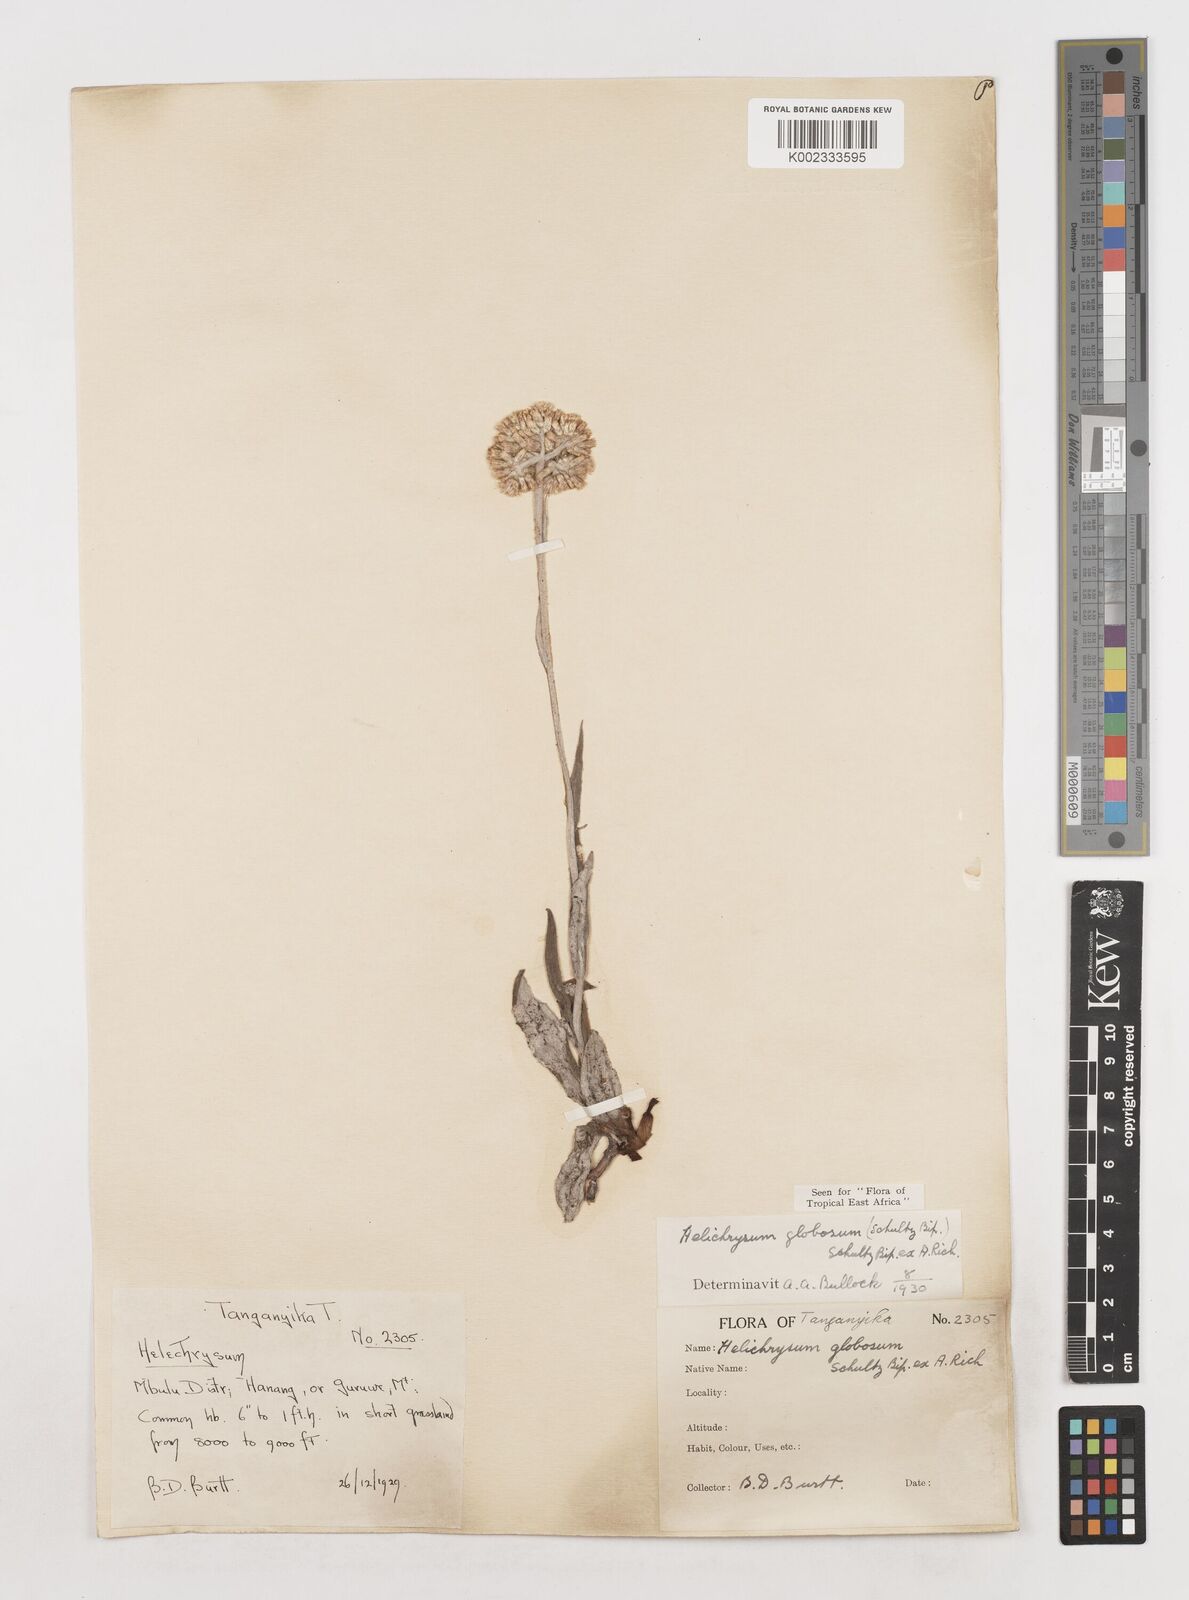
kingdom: Plantae
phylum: Tracheophyta
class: Magnoliopsida
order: Asterales
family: Asteraceae
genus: Helichrysum
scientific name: Helichrysum globosum
